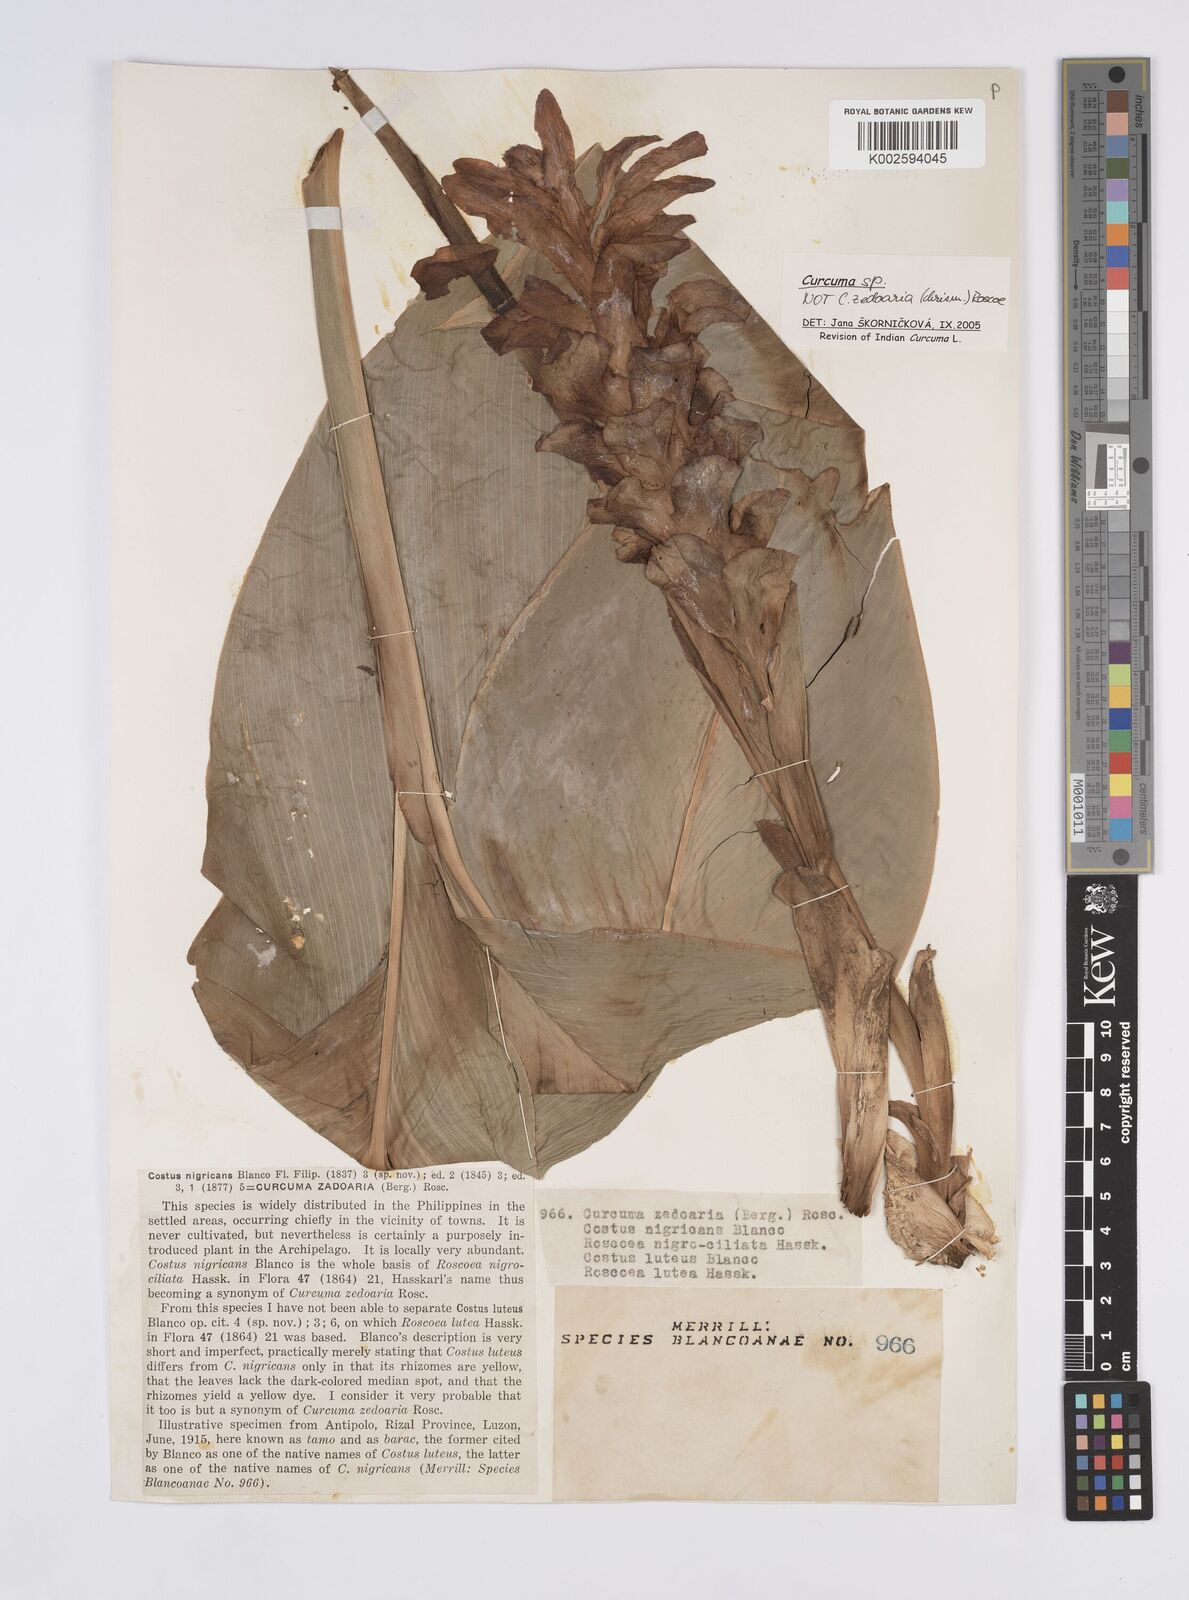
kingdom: Plantae
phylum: Tracheophyta
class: Liliopsida
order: Zingiberales
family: Zingiberaceae
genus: Curcuma
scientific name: Curcuma
